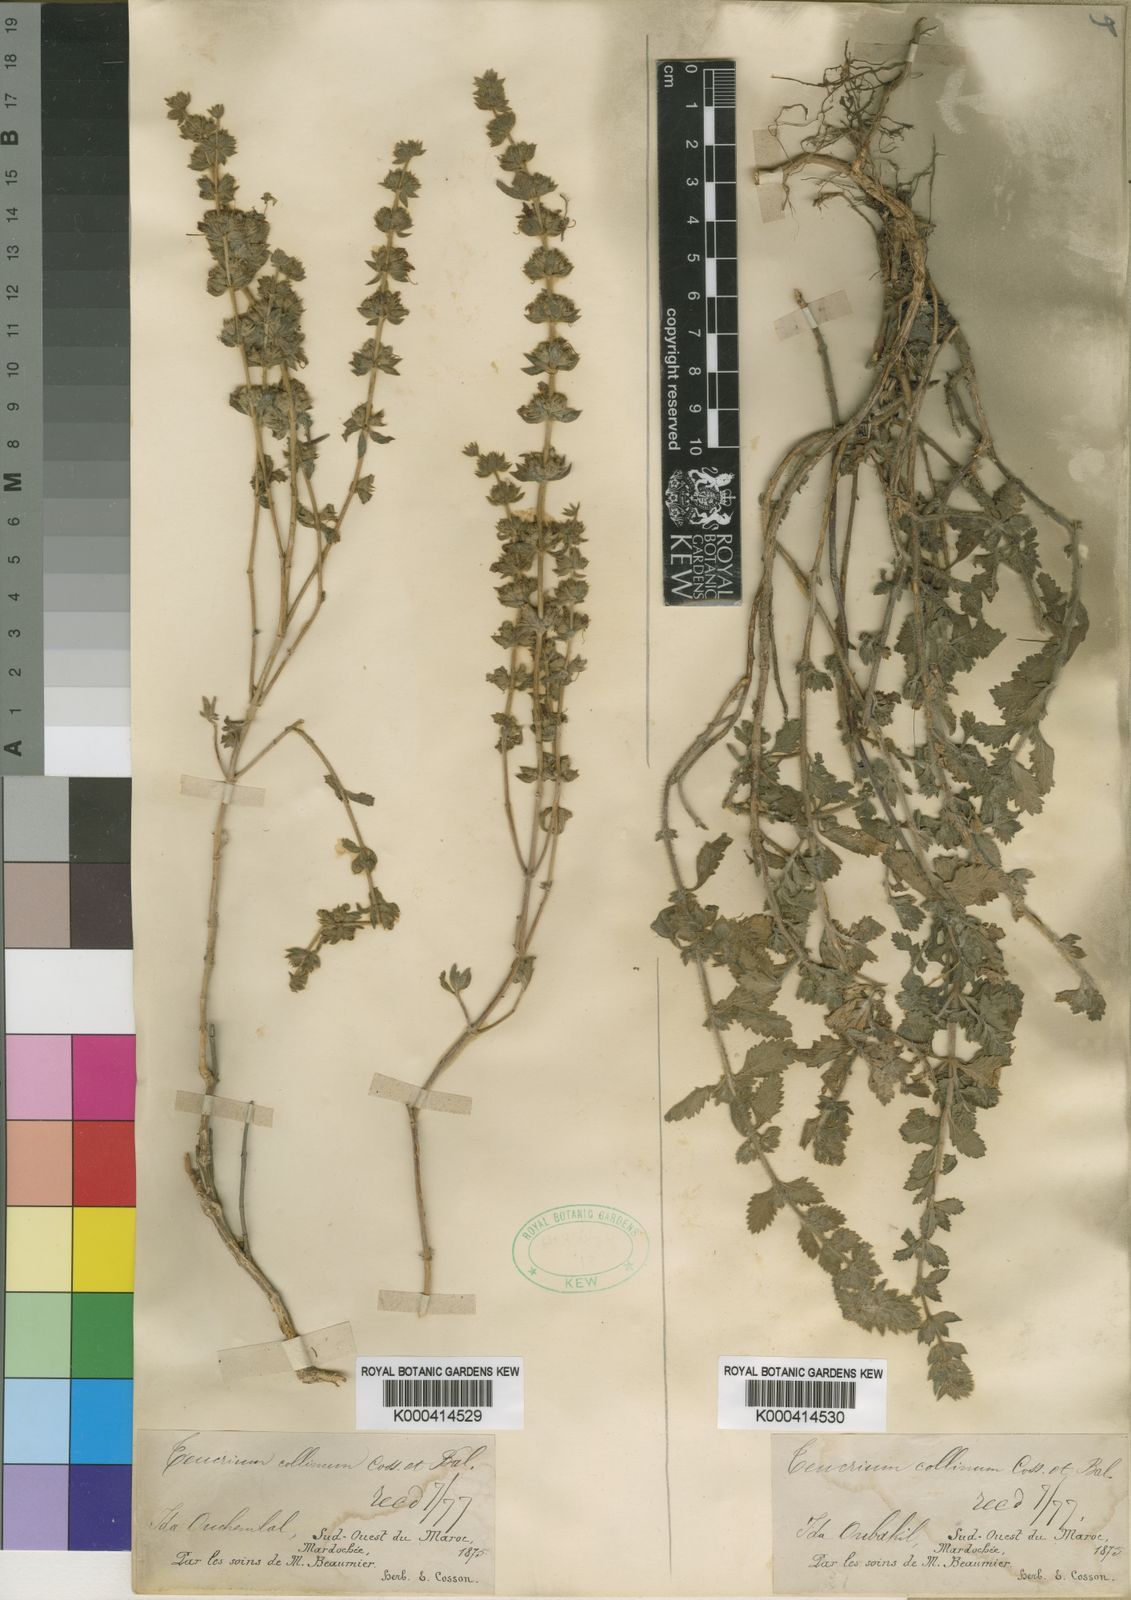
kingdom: Plantae
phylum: Tracheophyta
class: Magnoliopsida
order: Lamiales
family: Lamiaceae
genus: Teucrium
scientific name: Teucrium demnatense
